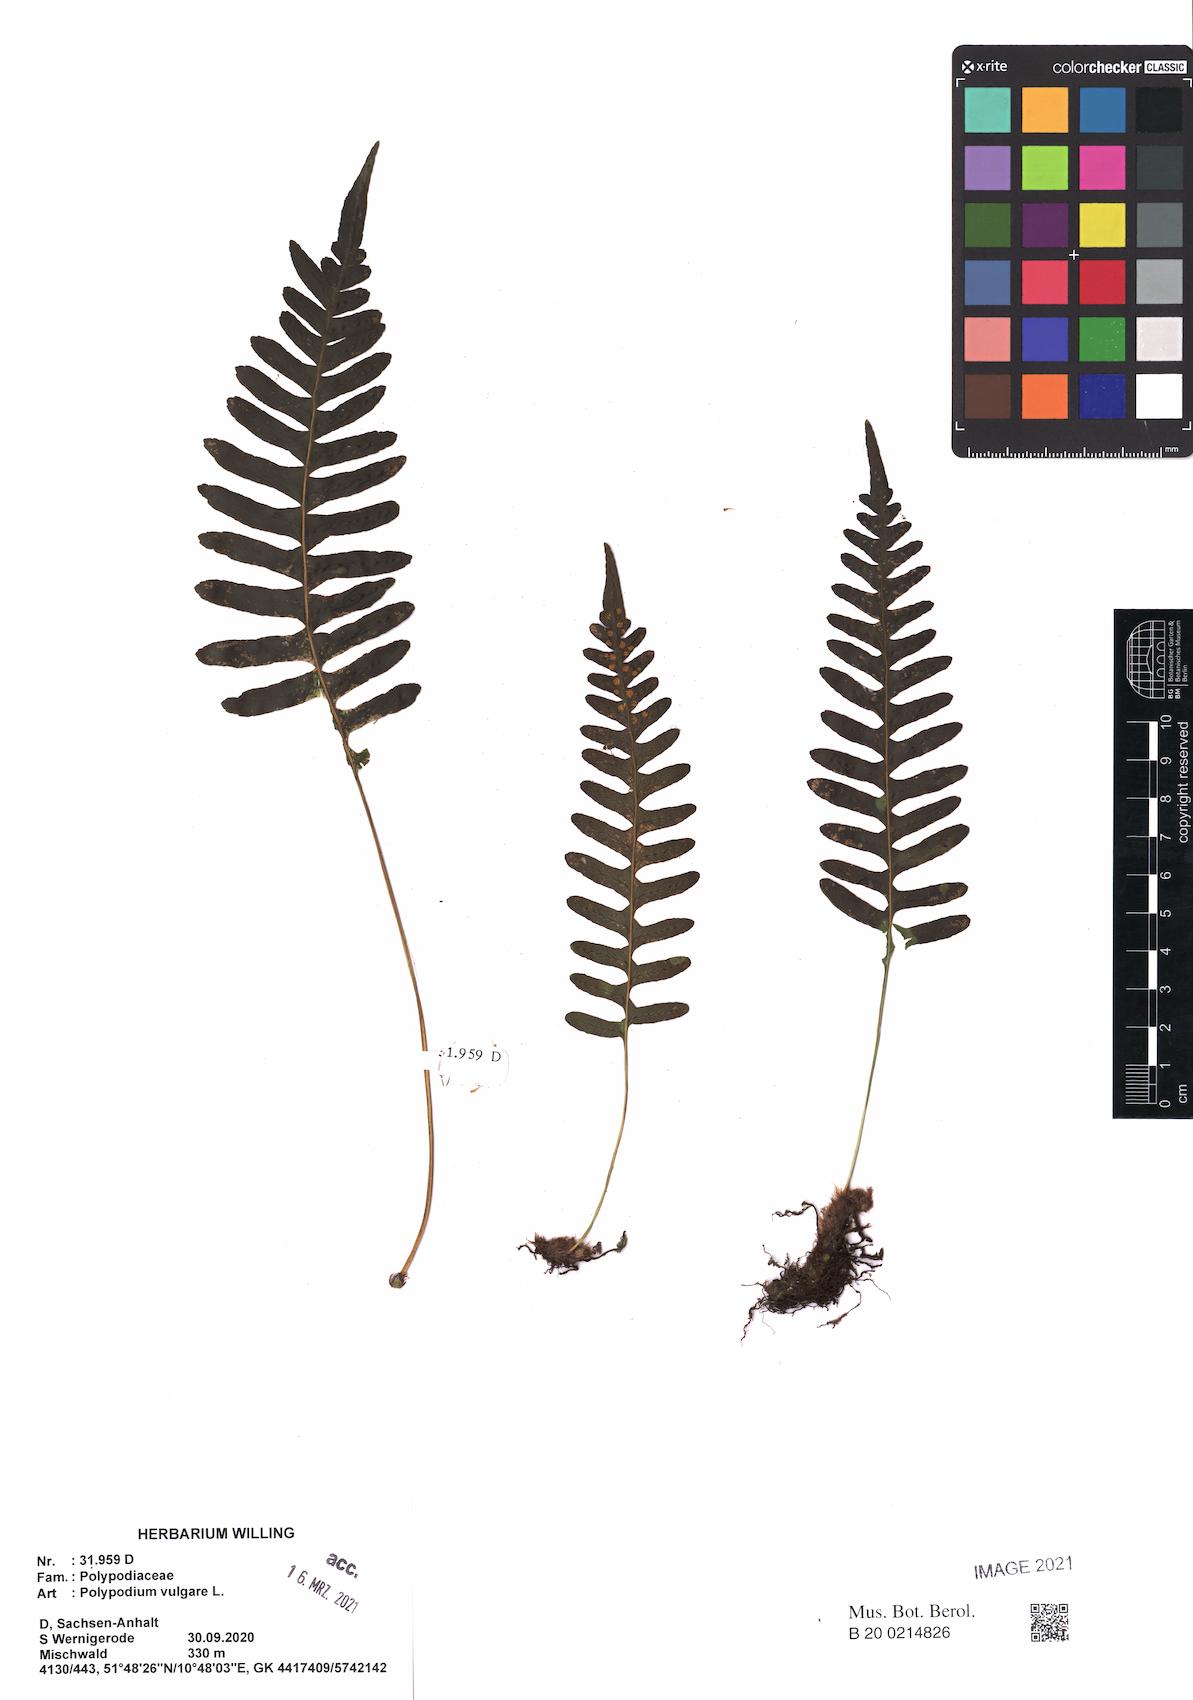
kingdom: Plantae
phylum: Tracheophyta
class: Polypodiopsida
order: Polypodiales
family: Polypodiaceae
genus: Polypodium
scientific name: Polypodium vulgare
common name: Common polypody
